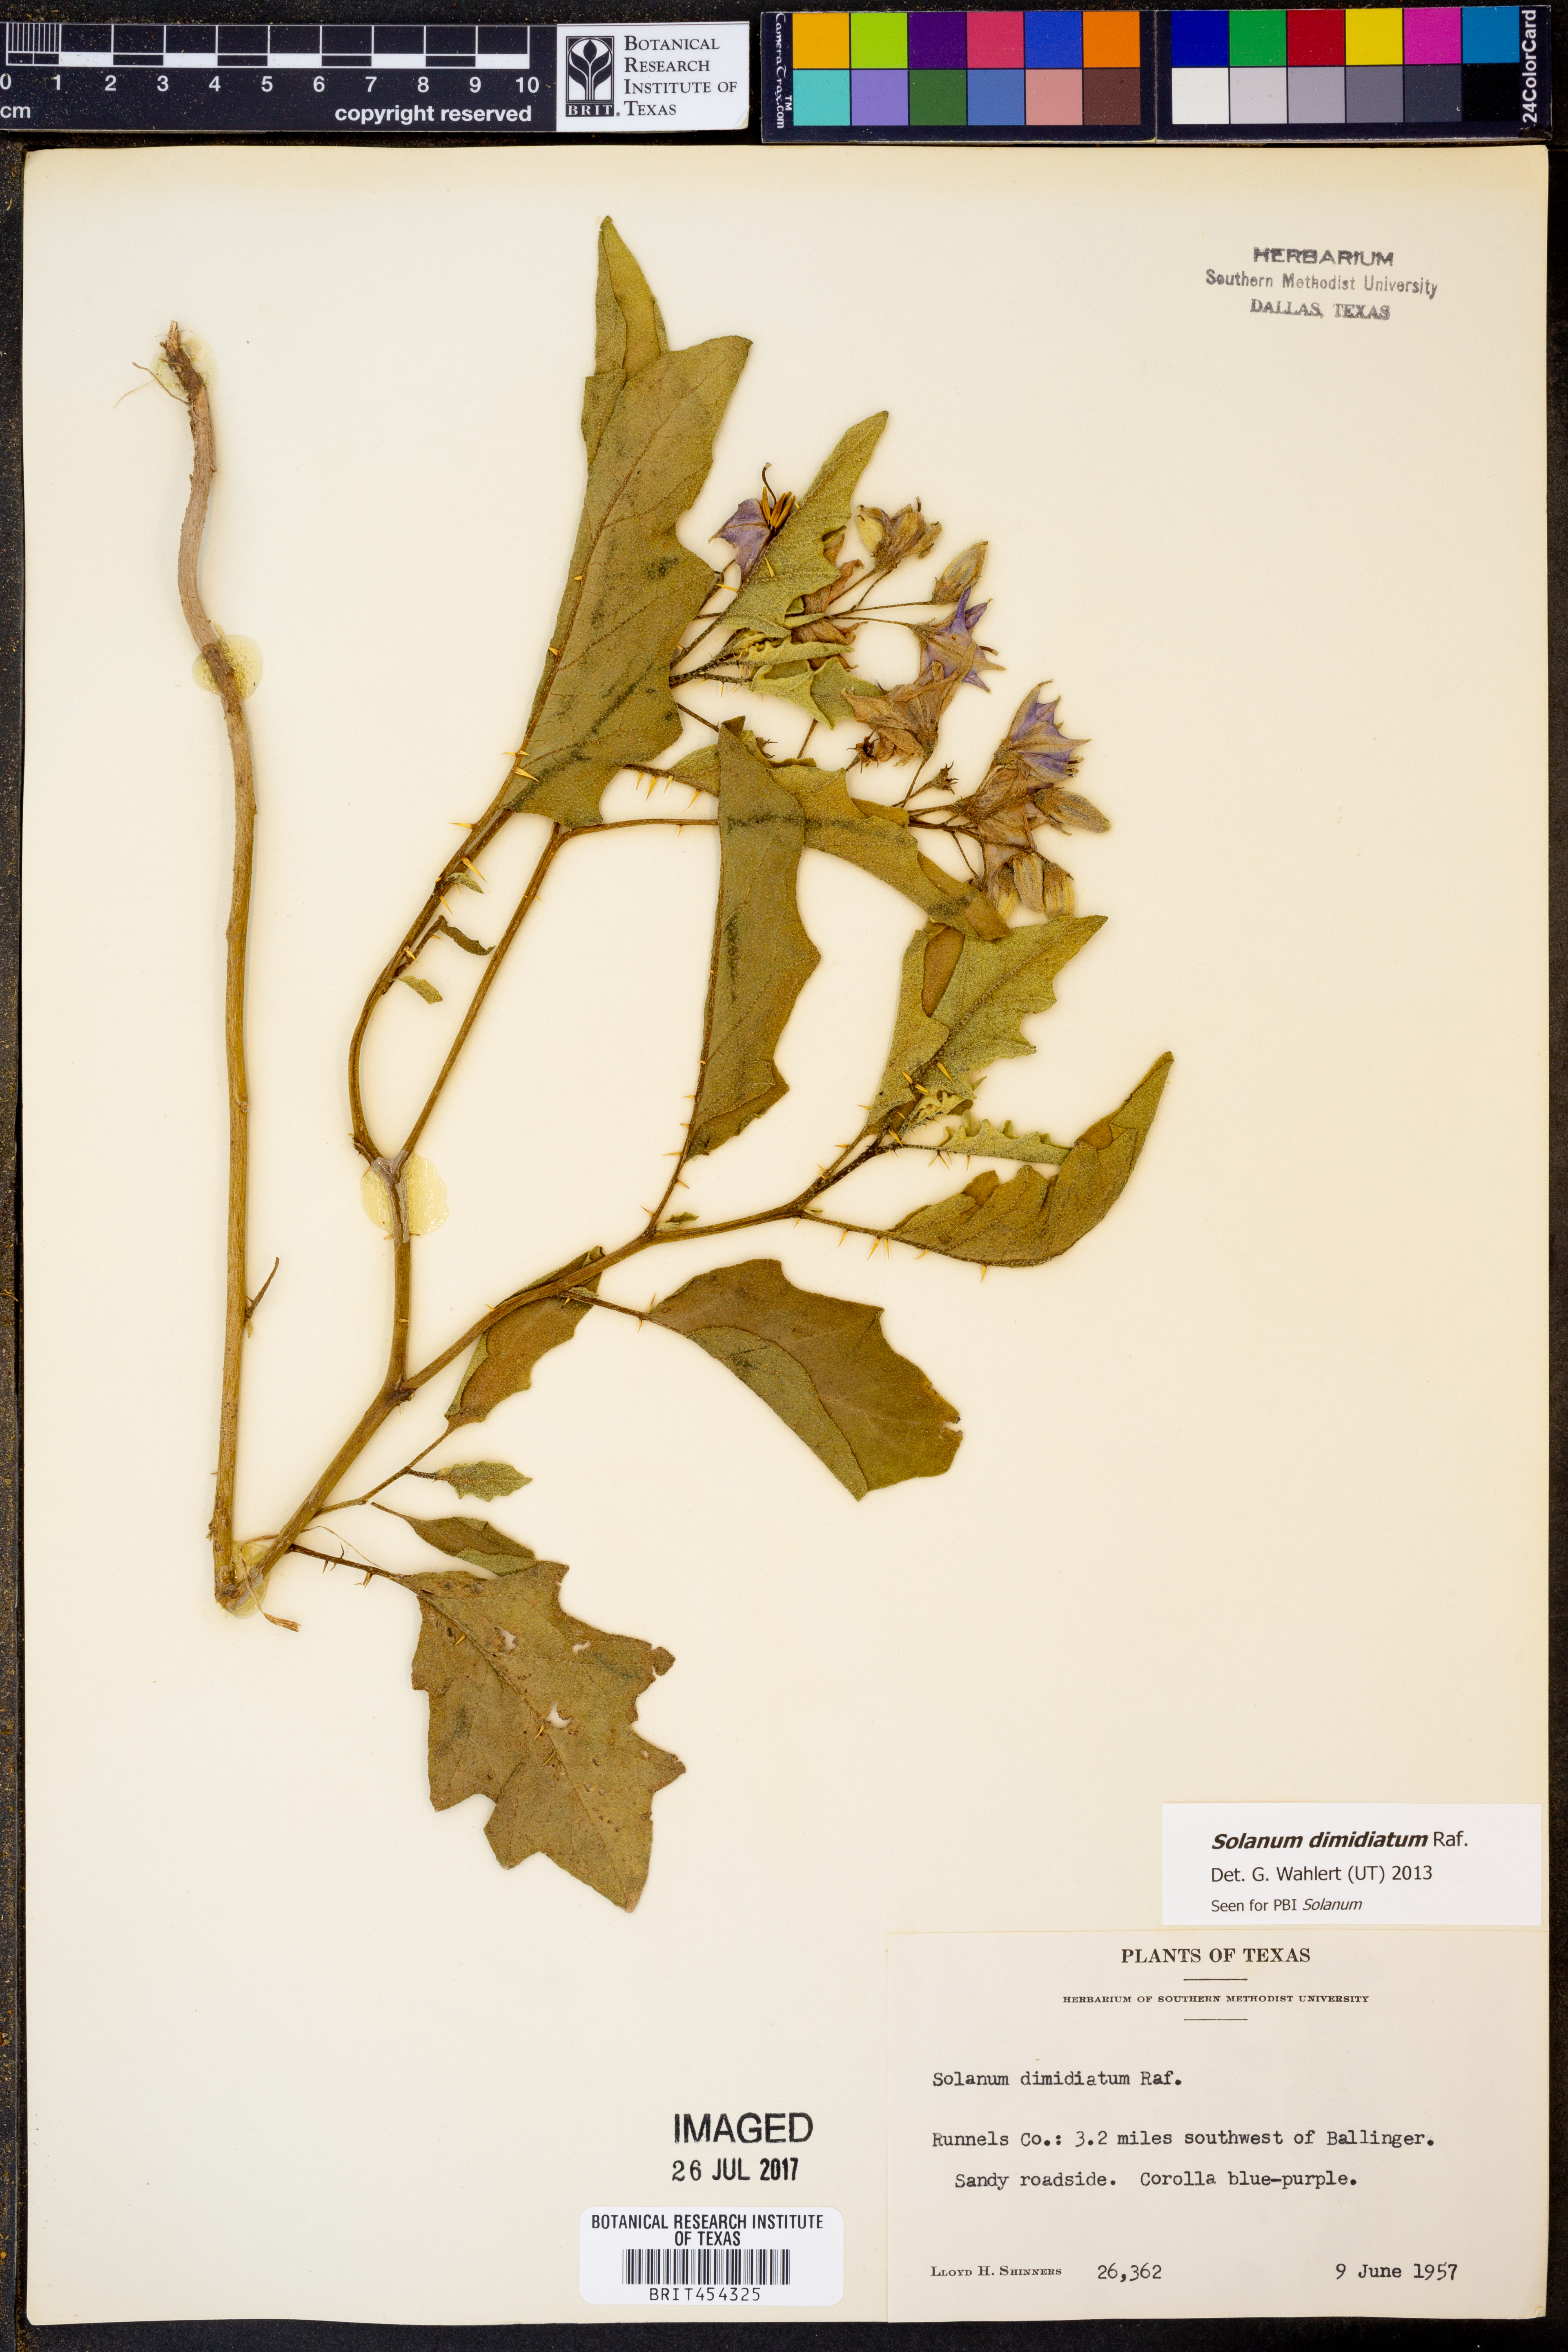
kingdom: Plantae
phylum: Tracheophyta
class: Magnoliopsida
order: Solanales
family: Solanaceae
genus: Solanum
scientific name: Solanum dimidiatum
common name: Carolina horse-nettle
